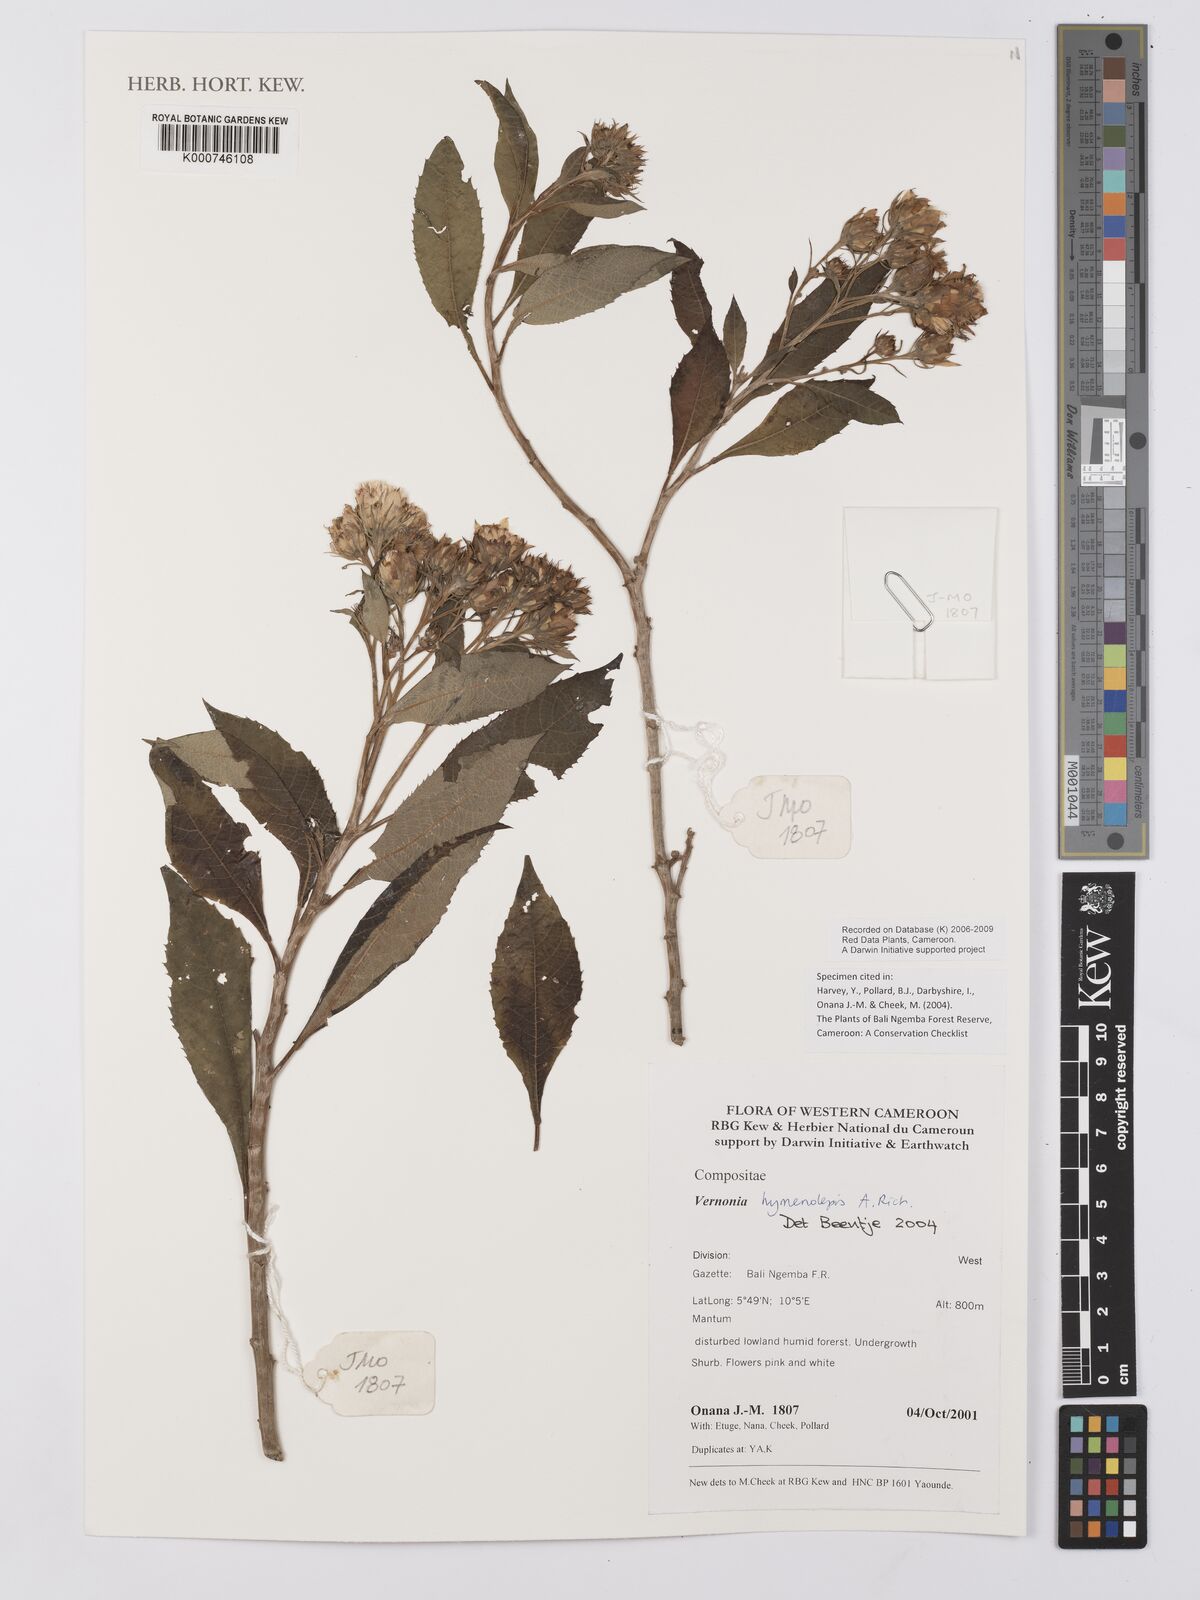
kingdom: Plantae
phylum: Tracheophyta
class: Magnoliopsida
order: Asterales
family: Asteraceae
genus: Baccharoides
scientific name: Baccharoides hymenolepis
